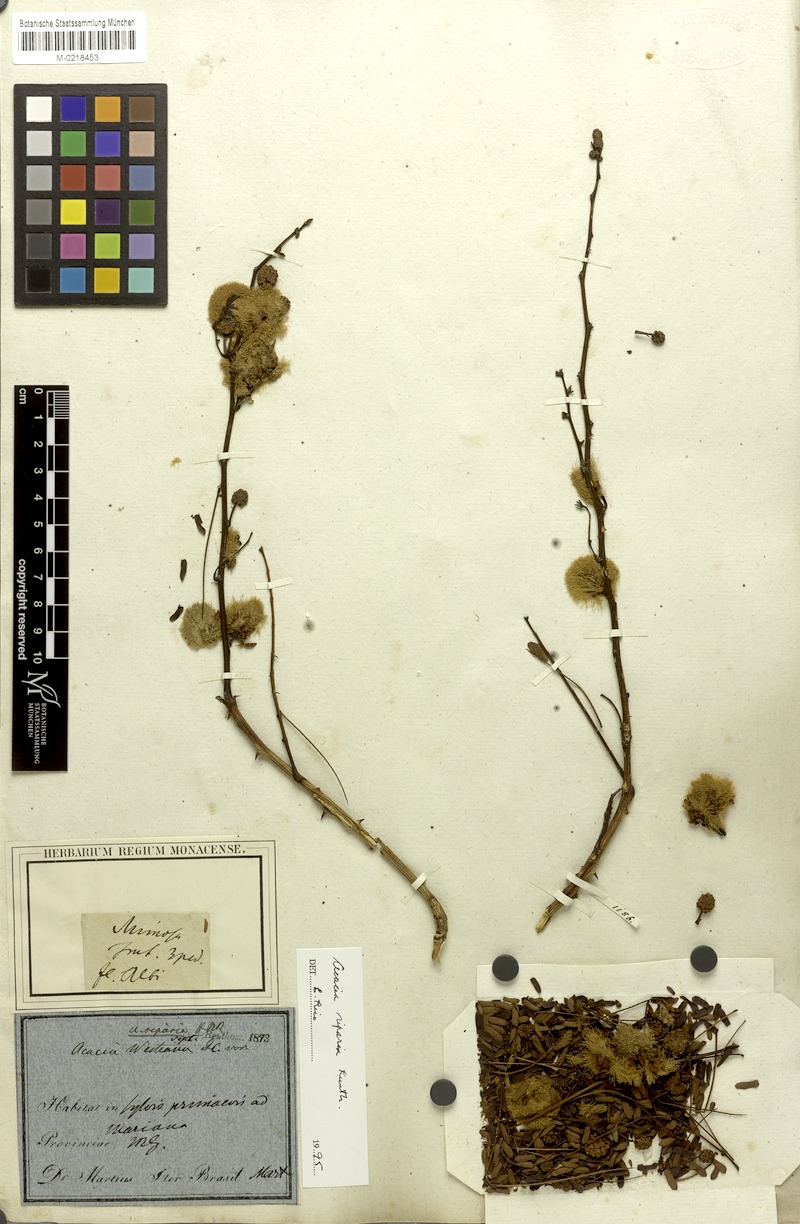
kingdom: Plantae
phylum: Tracheophyta
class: Magnoliopsida
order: Fabales
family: Fabaceae
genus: Senegalia
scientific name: Senegalia riparia
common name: Catch-and-keep
